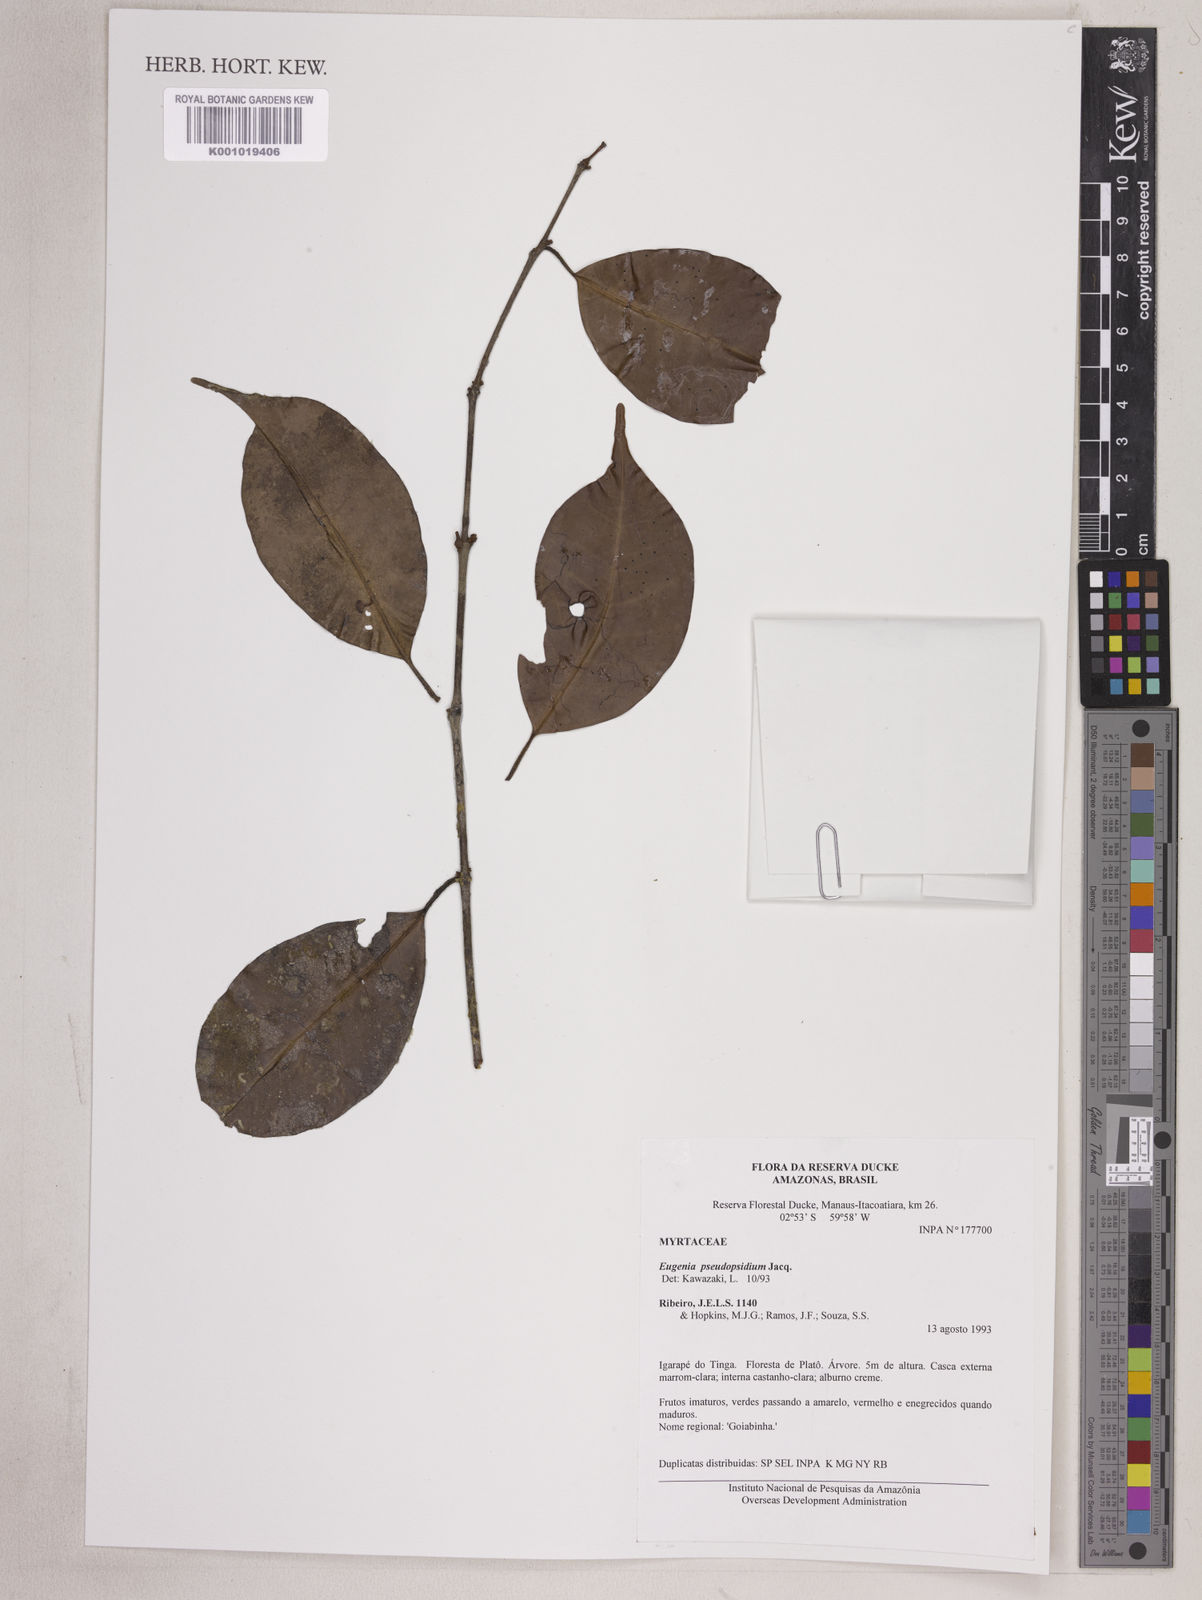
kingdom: Plantae
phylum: Tracheophyta
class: Magnoliopsida
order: Myrtales
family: Myrtaceae
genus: Eugenia
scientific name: Eugenia pseudopsidium
